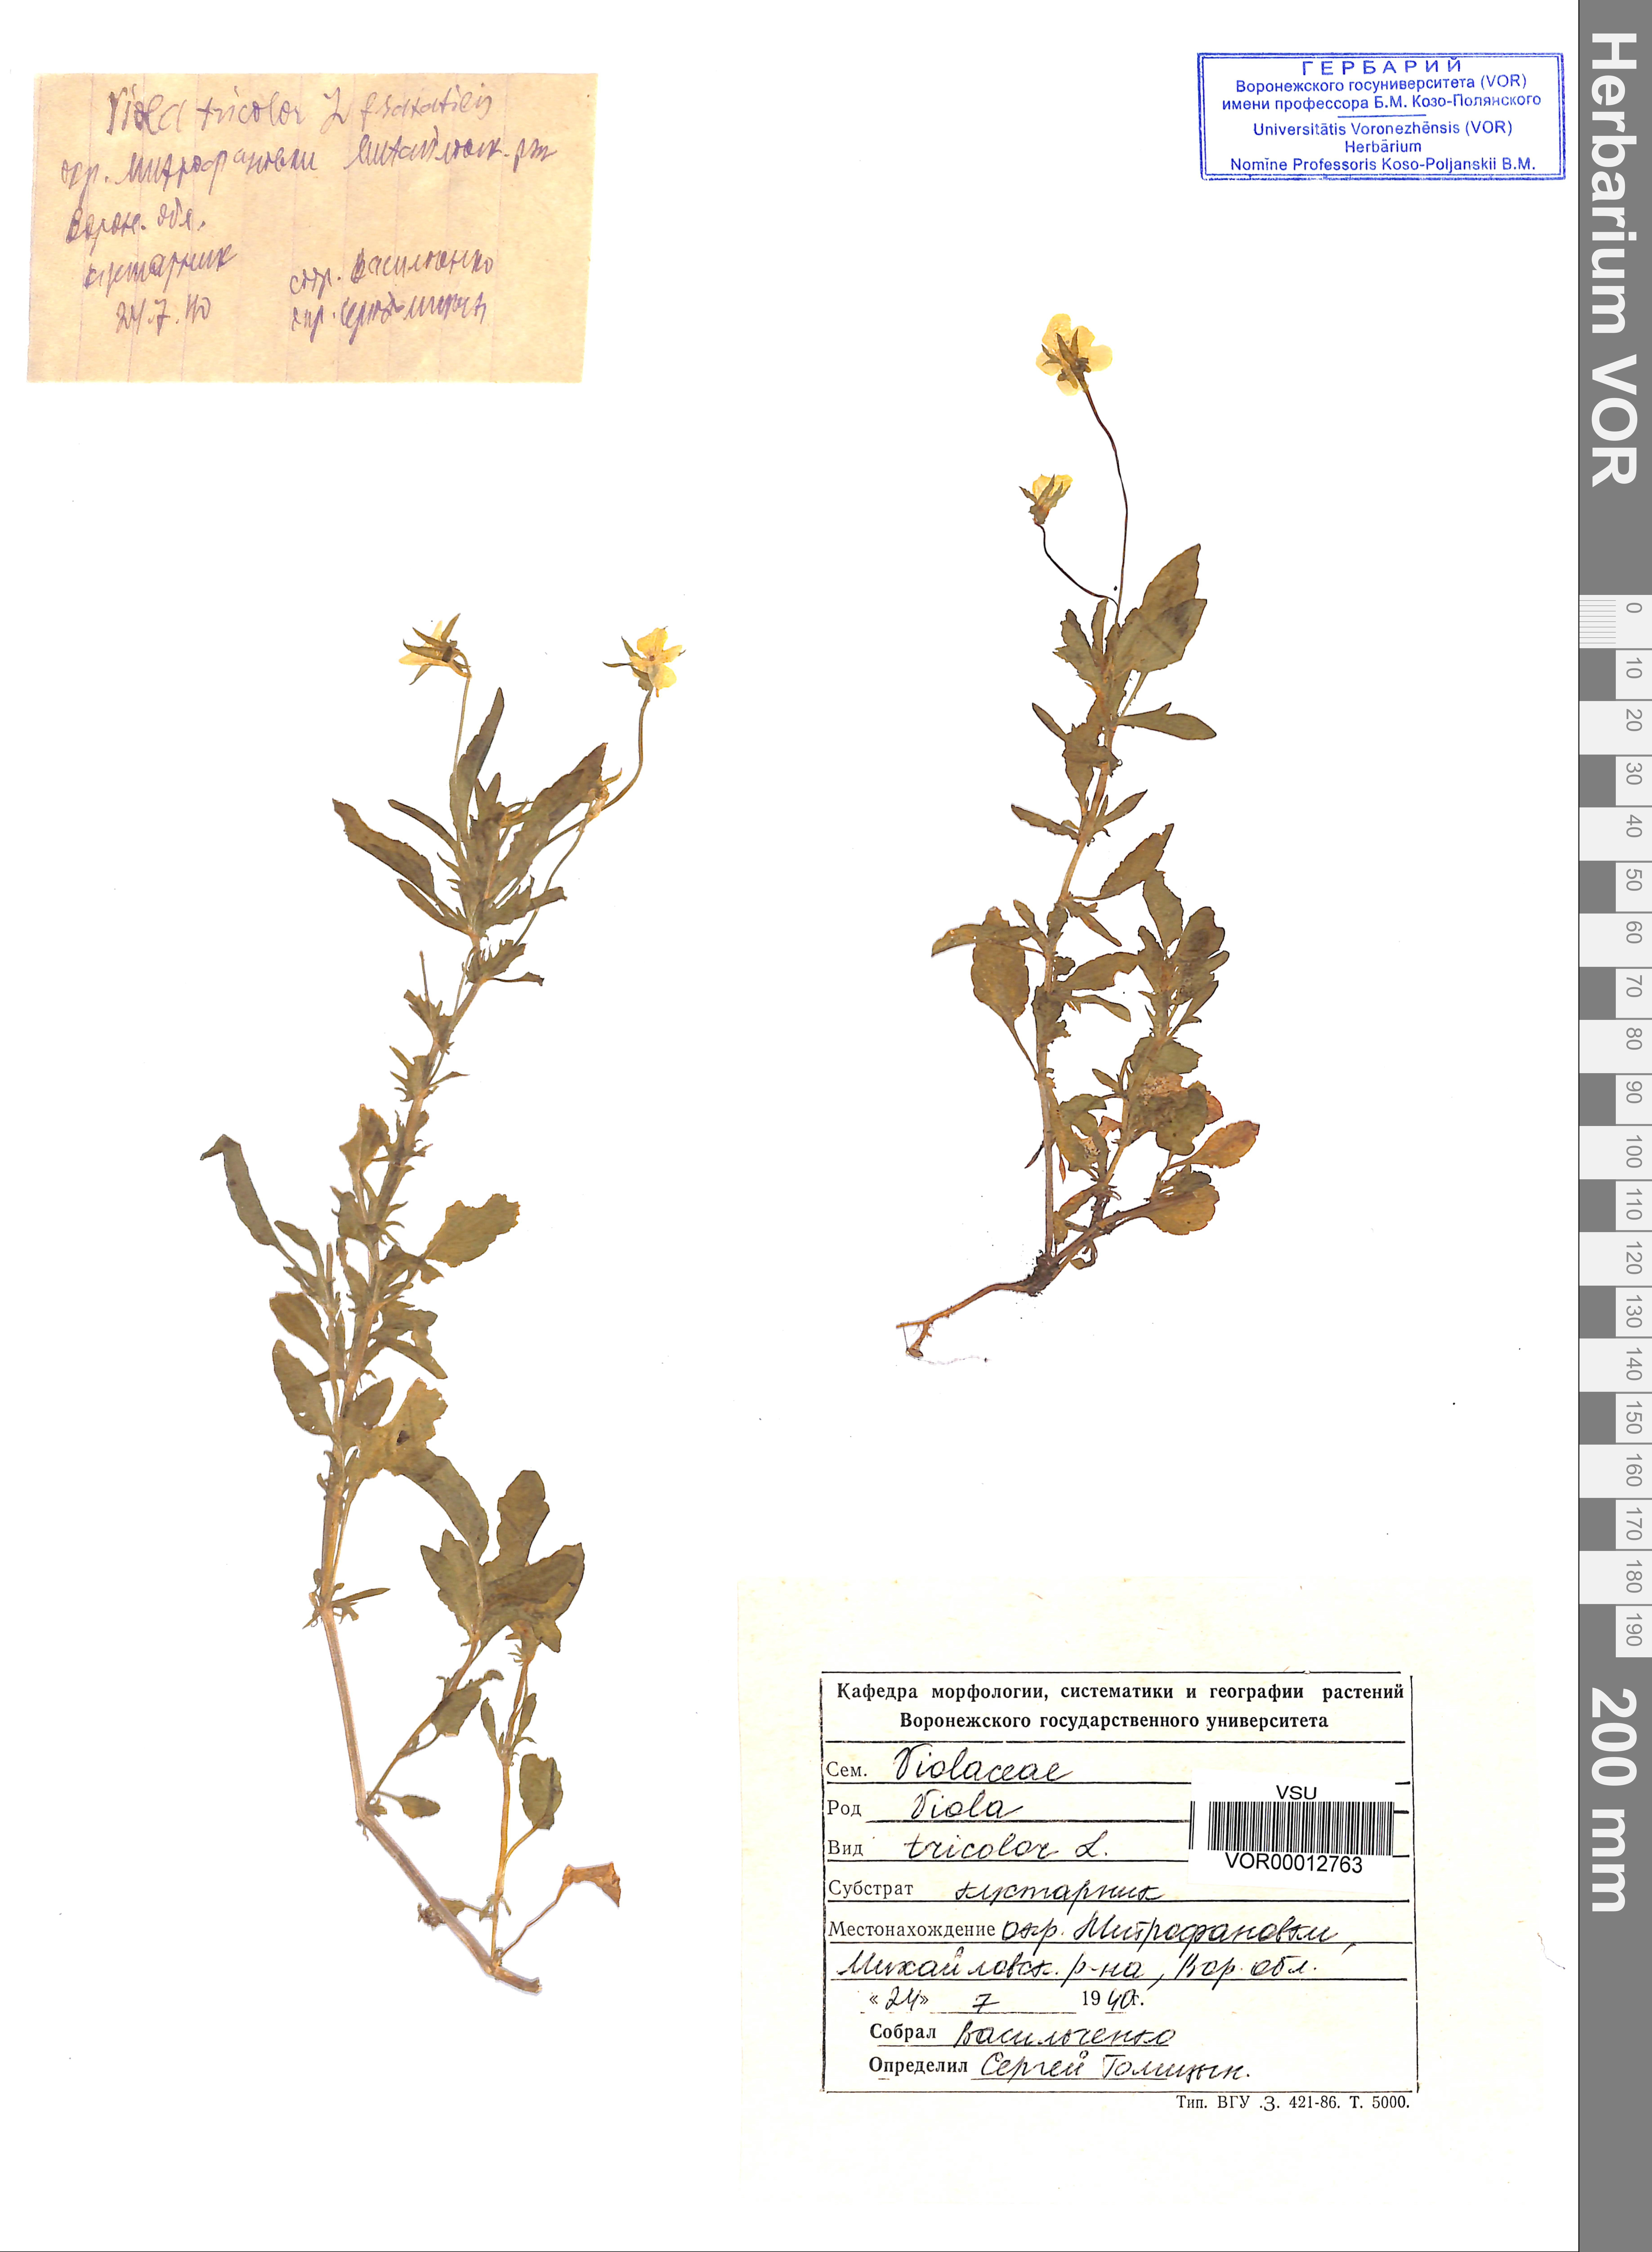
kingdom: Plantae
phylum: Tracheophyta
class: Magnoliopsida
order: Malpighiales
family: Violaceae
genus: Viola
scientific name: Viola tricolor
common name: Pansy
